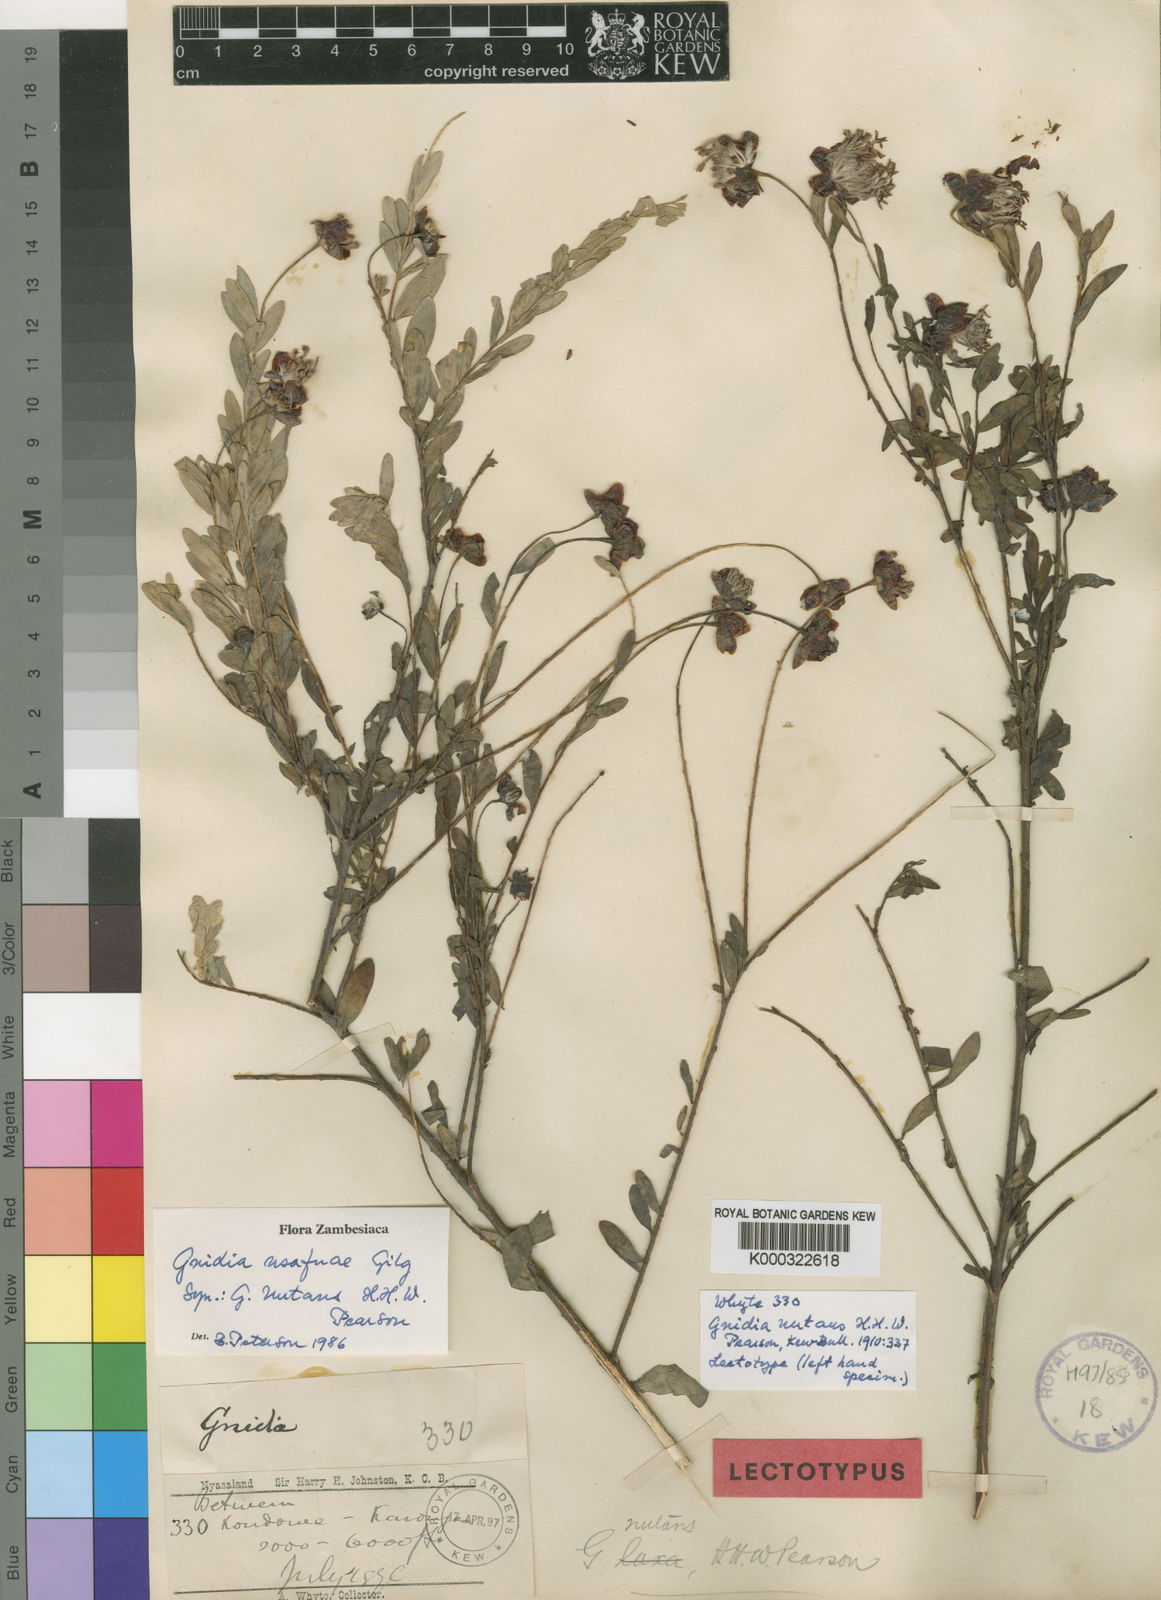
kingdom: Plantae
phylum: Tracheophyta
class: Magnoliopsida
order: Malvales
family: Thymelaeaceae
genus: Gnidia
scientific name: Gnidia usafuae
